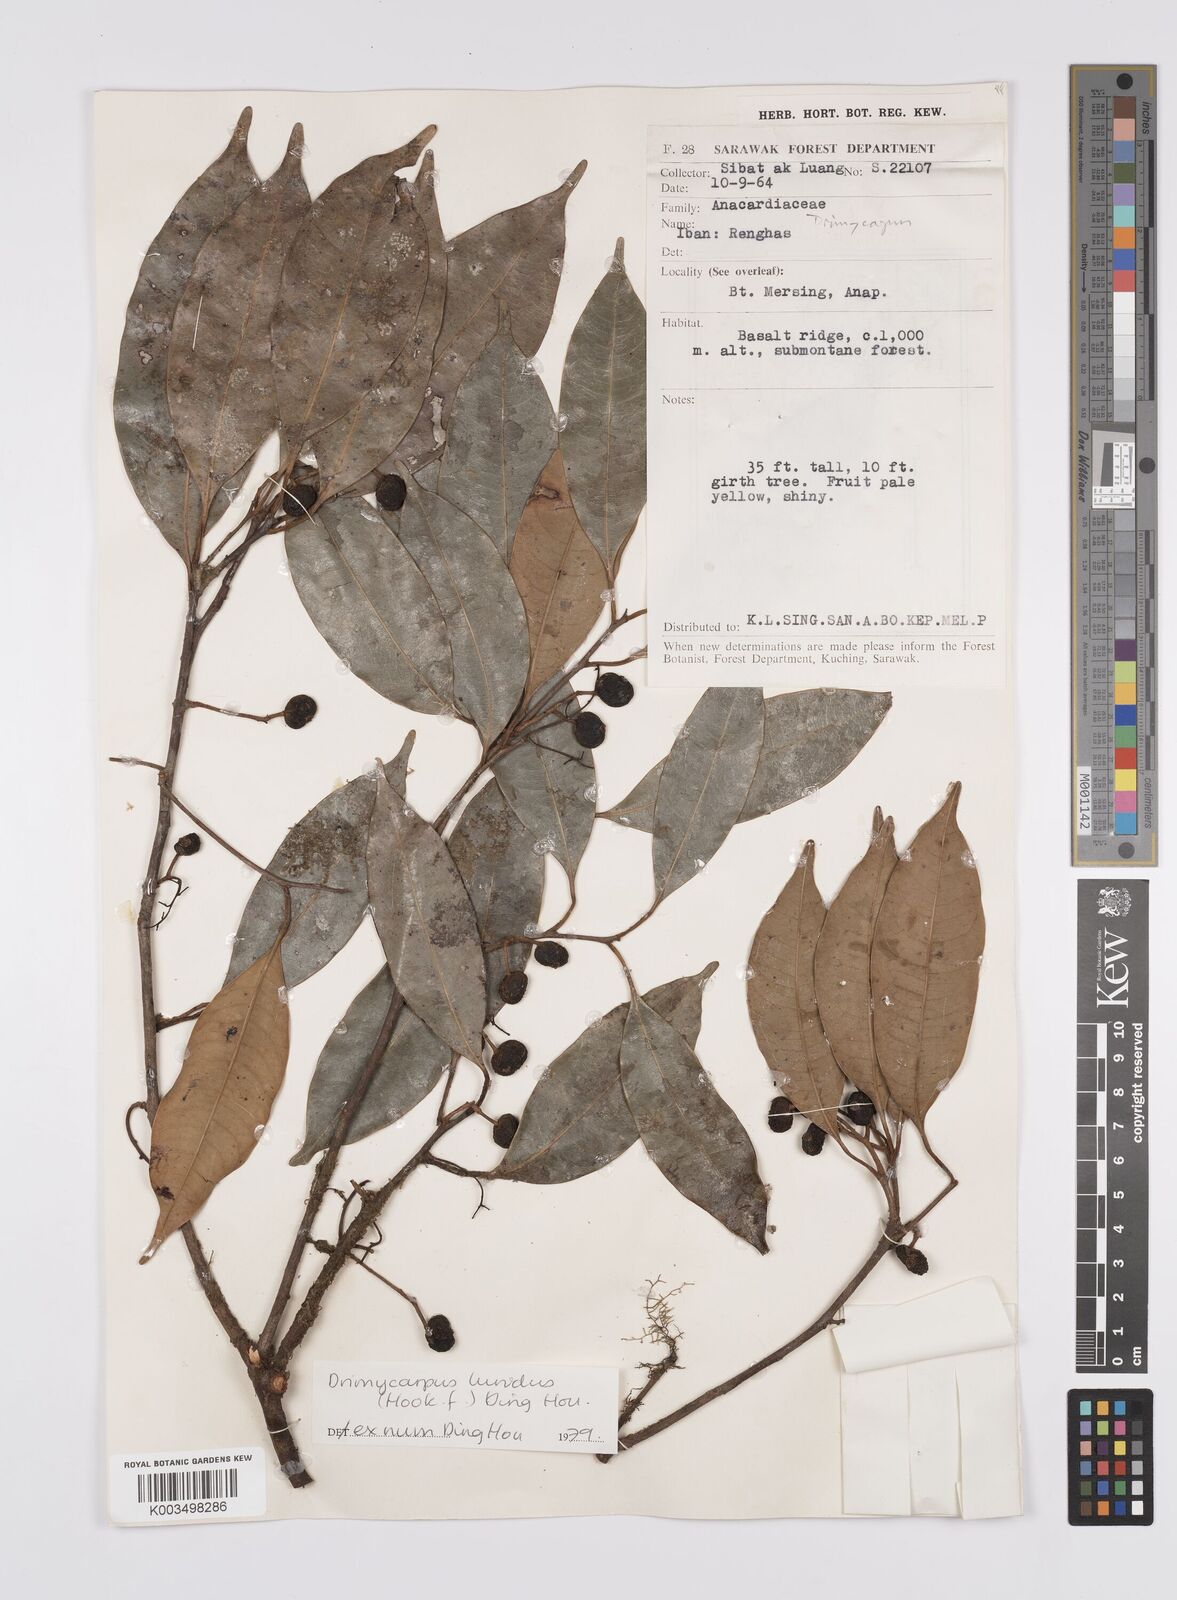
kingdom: Plantae
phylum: Tracheophyta
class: Magnoliopsida
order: Sapindales
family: Anacardiaceae
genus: Drimycarpus
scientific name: Drimycarpus luridus
